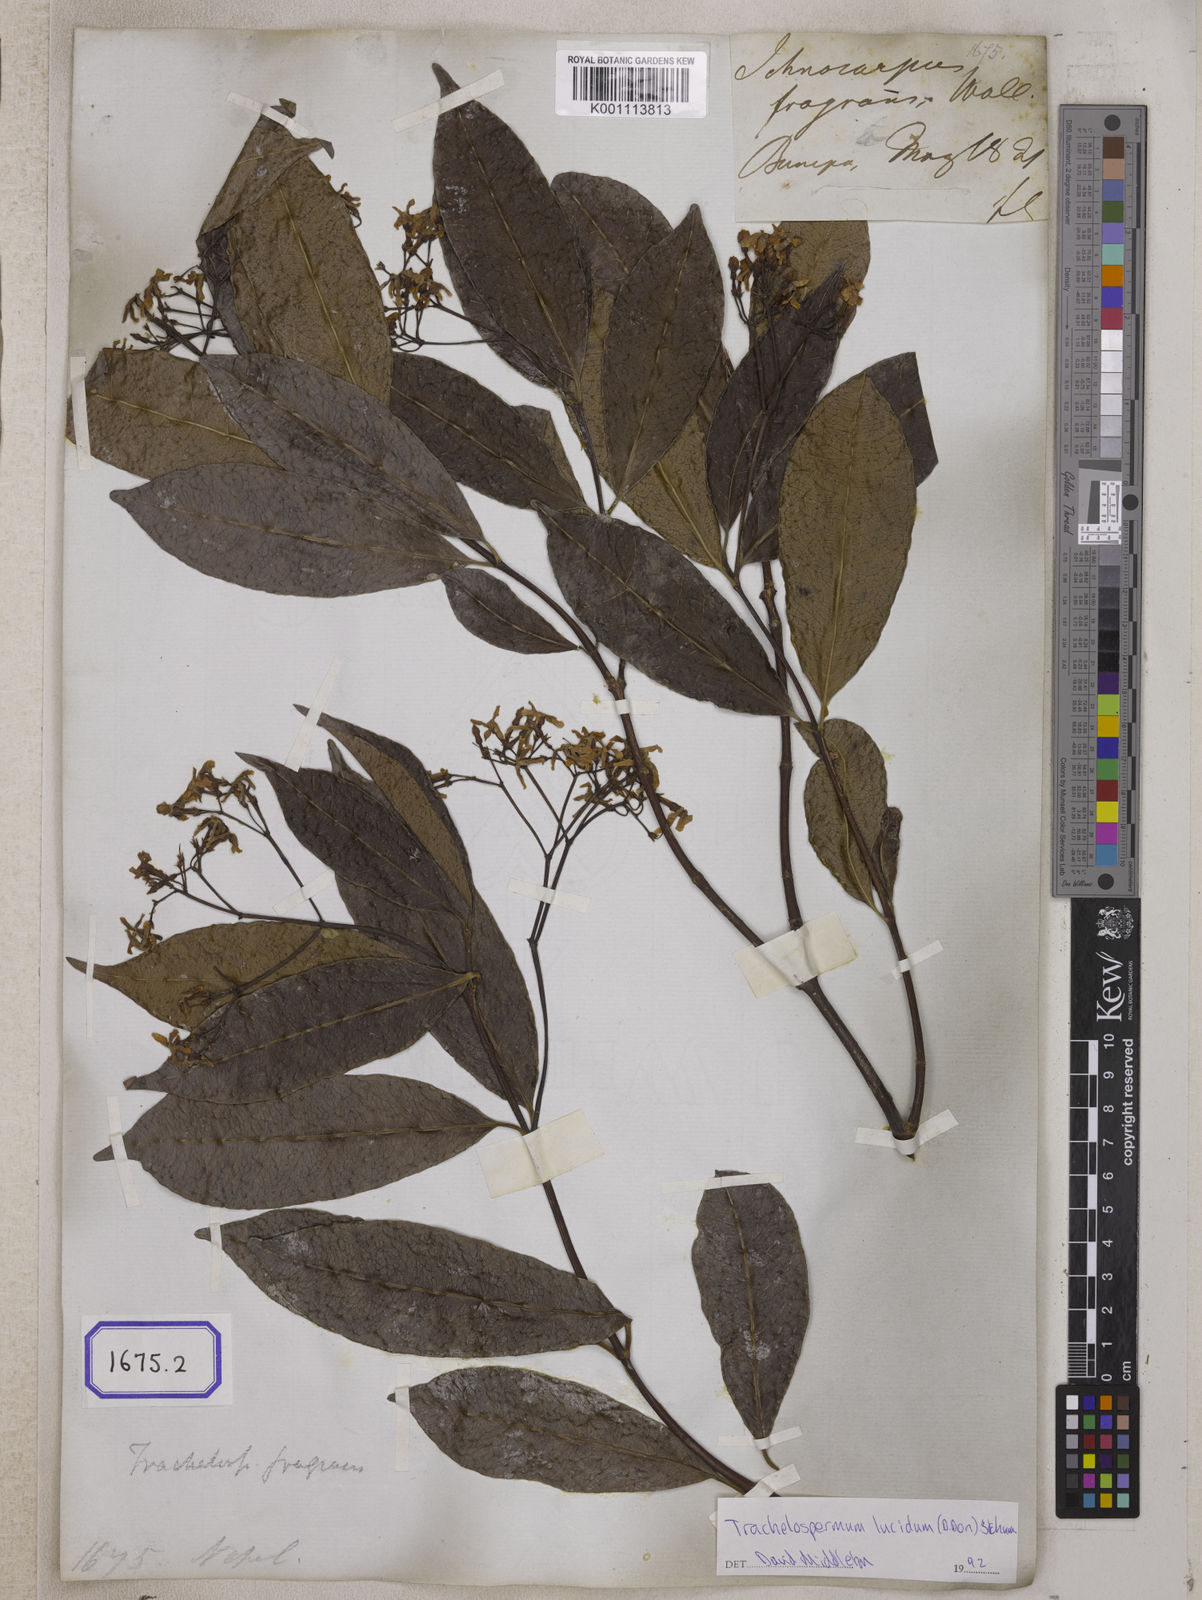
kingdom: Plantae
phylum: Tracheophyta
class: Magnoliopsida
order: Gentianales
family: Apocynaceae
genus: Ichnocarpus
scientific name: Ichnocarpus
